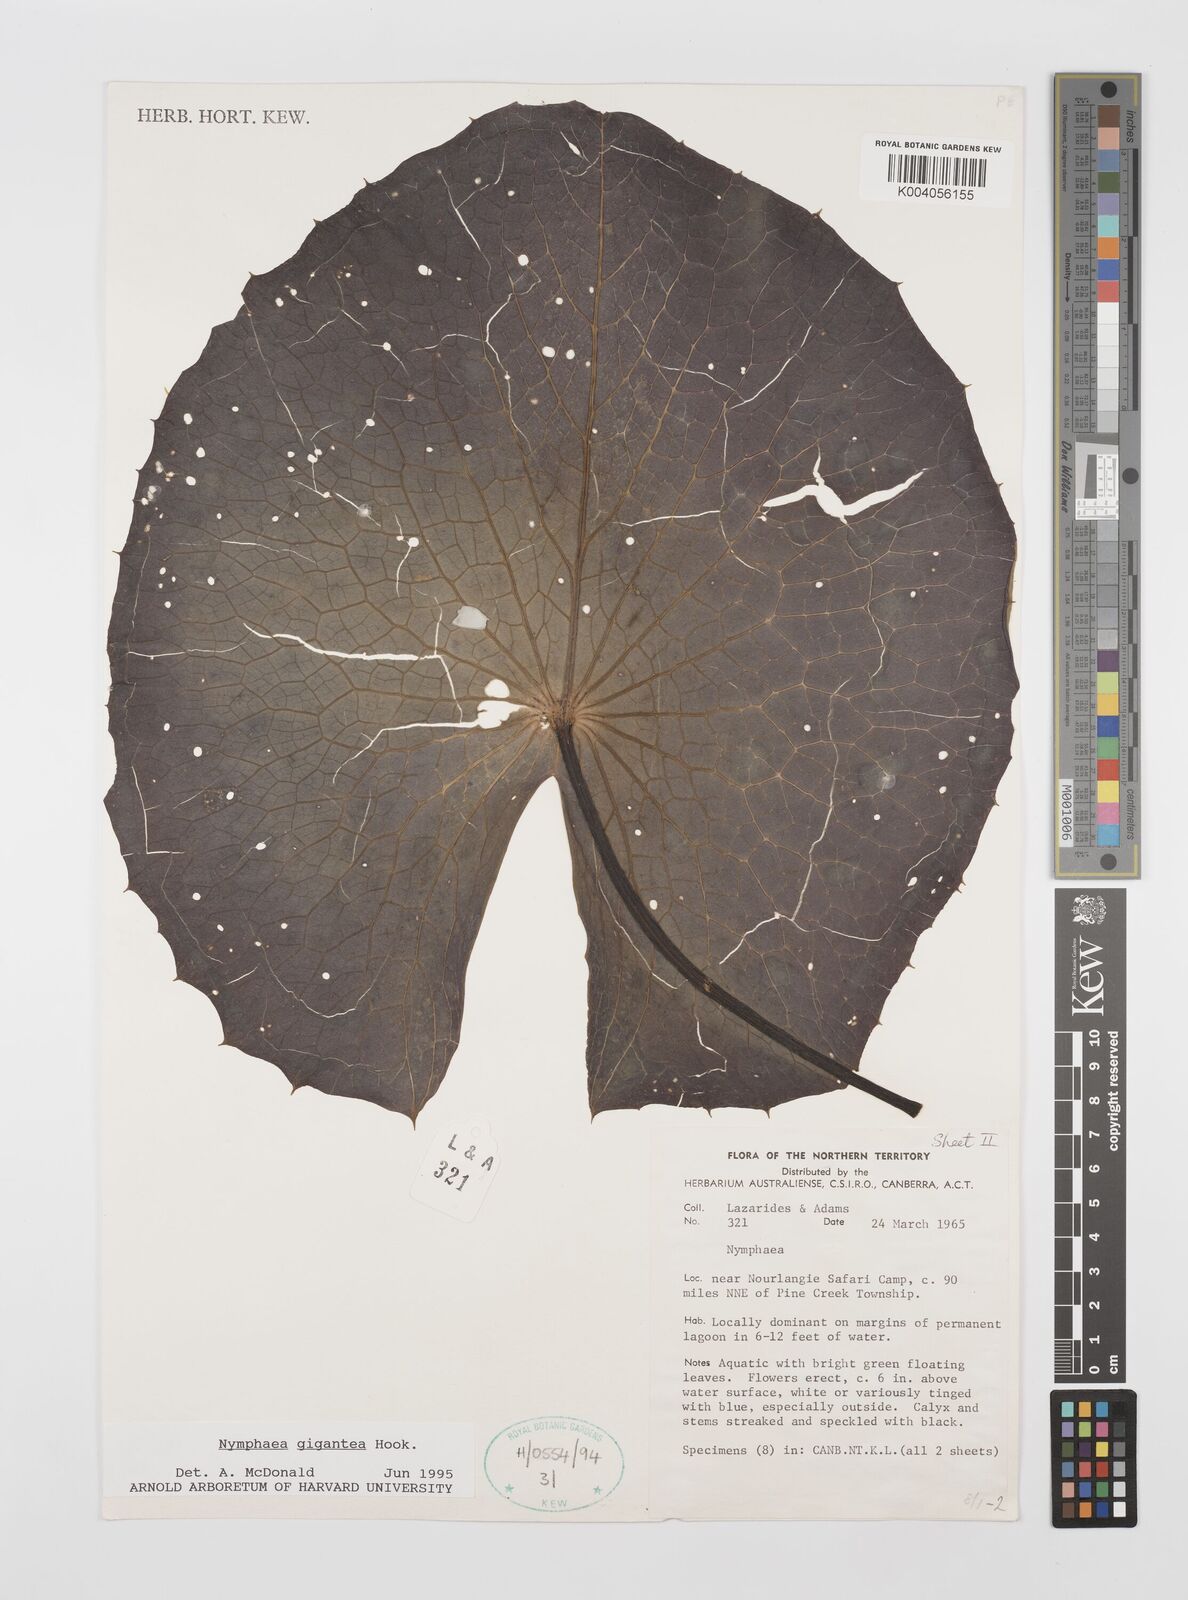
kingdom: Plantae
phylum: Tracheophyta
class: Magnoliopsida
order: Nymphaeales
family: Nymphaeaceae
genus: Nymphaea
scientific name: Nymphaea gigantea
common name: Giant water-lily
